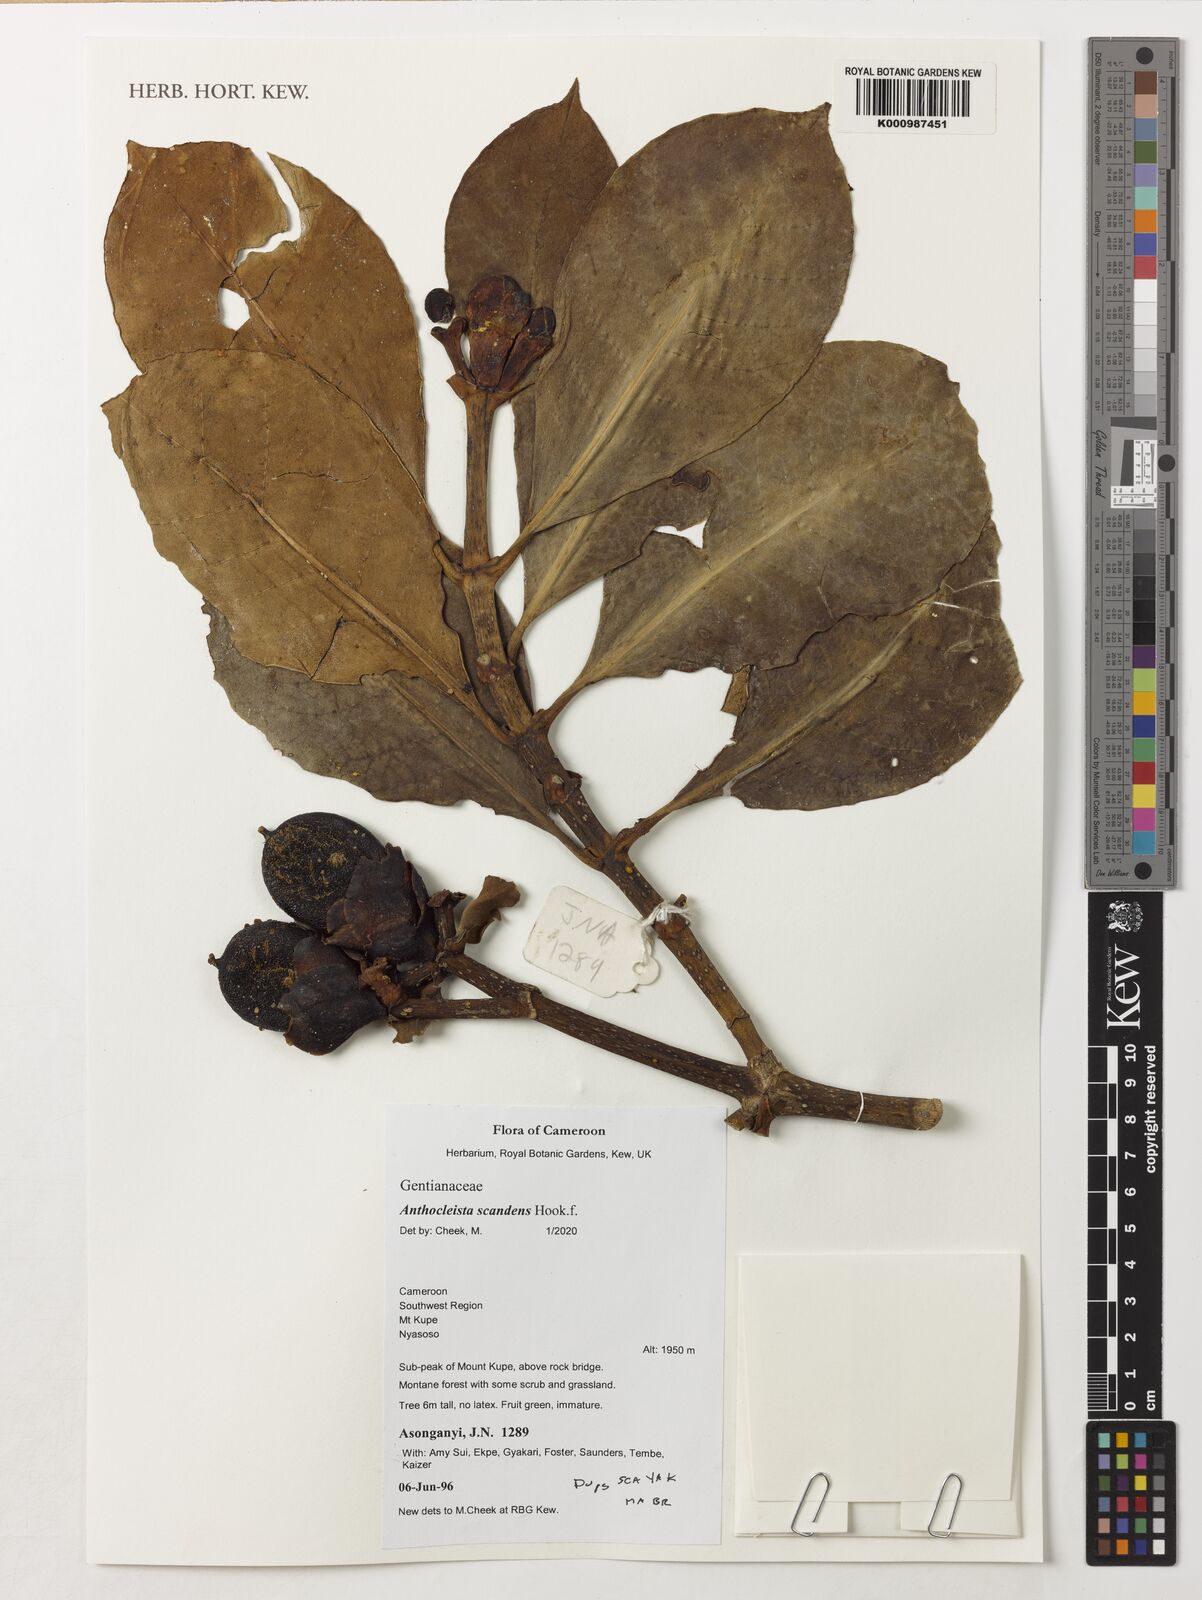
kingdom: Plantae
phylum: Tracheophyta
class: Magnoliopsida
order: Gentianales
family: Gentianaceae
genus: Anthocleista
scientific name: Anthocleista scandens
